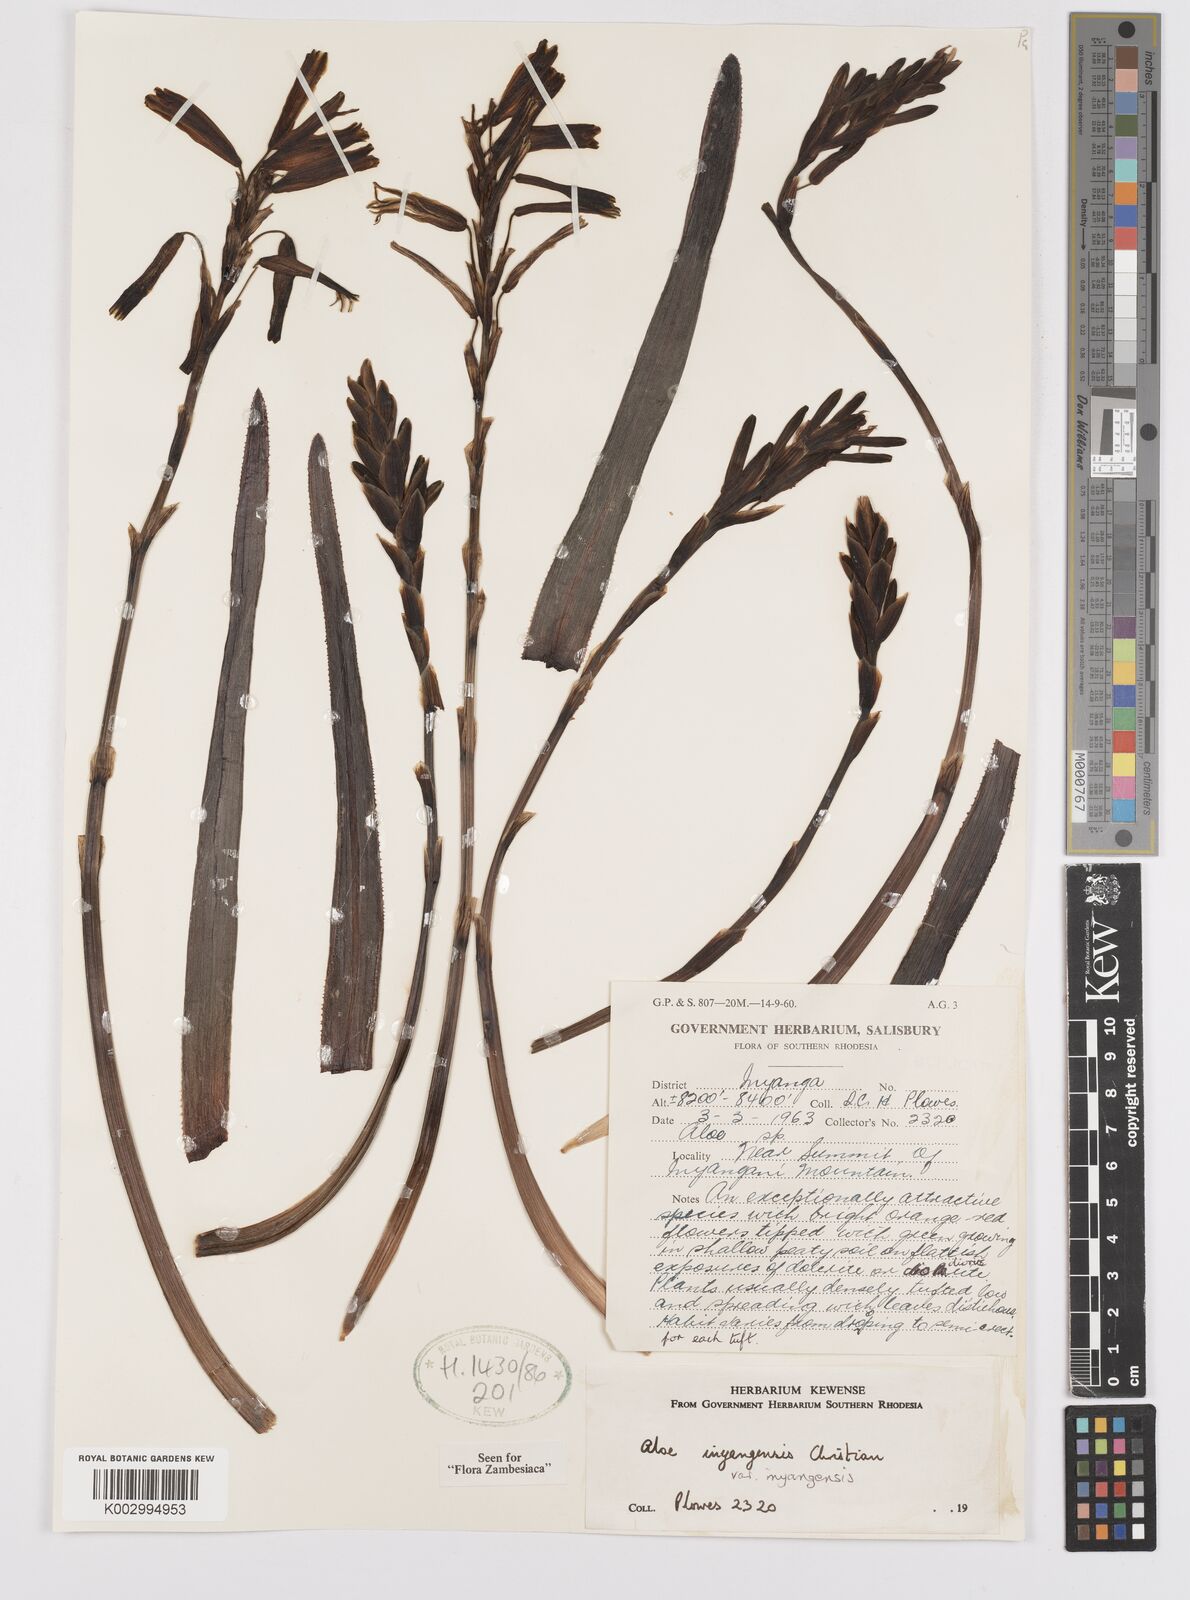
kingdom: Plantae
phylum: Tracheophyta
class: Liliopsida
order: Asparagales
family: Asphodelaceae
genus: Aloe
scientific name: Aloe inyangensis
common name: Inyanga aloe
